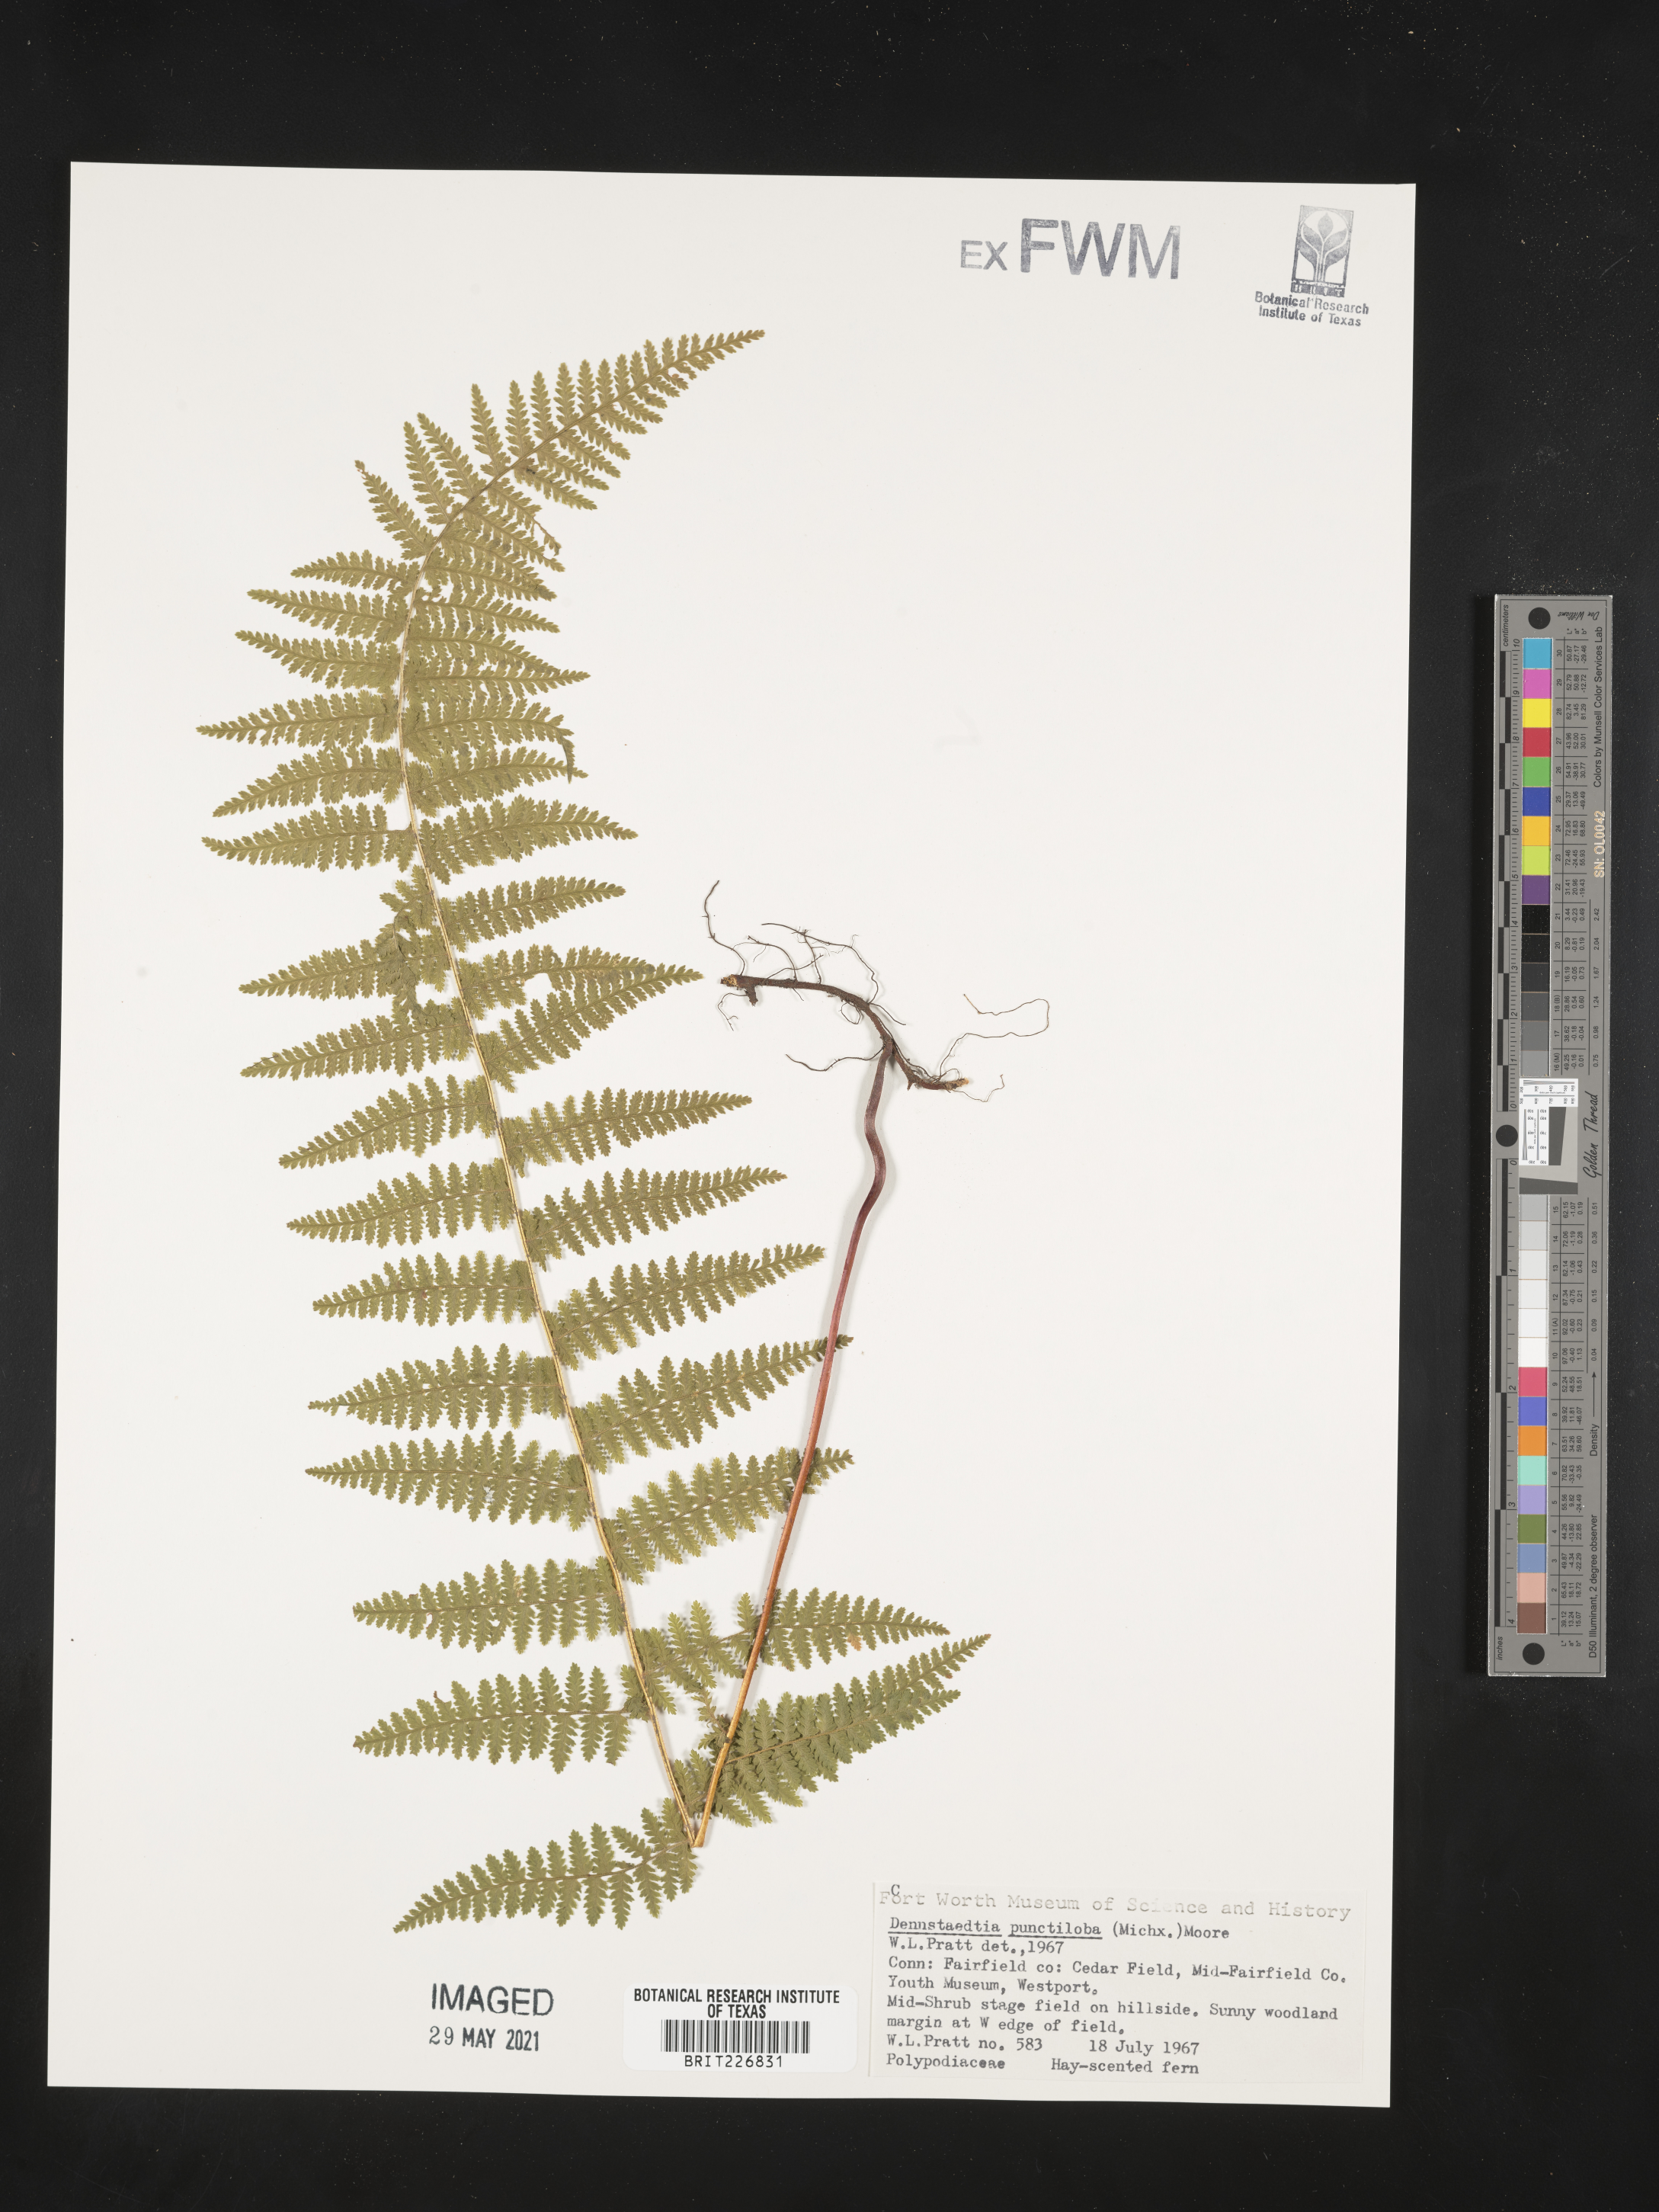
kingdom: Plantae
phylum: Tracheophyta
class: Polypodiopsida
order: Polypodiales
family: Dennstaedtiaceae
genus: Sitobolium
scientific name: Sitobolium punctilobum
